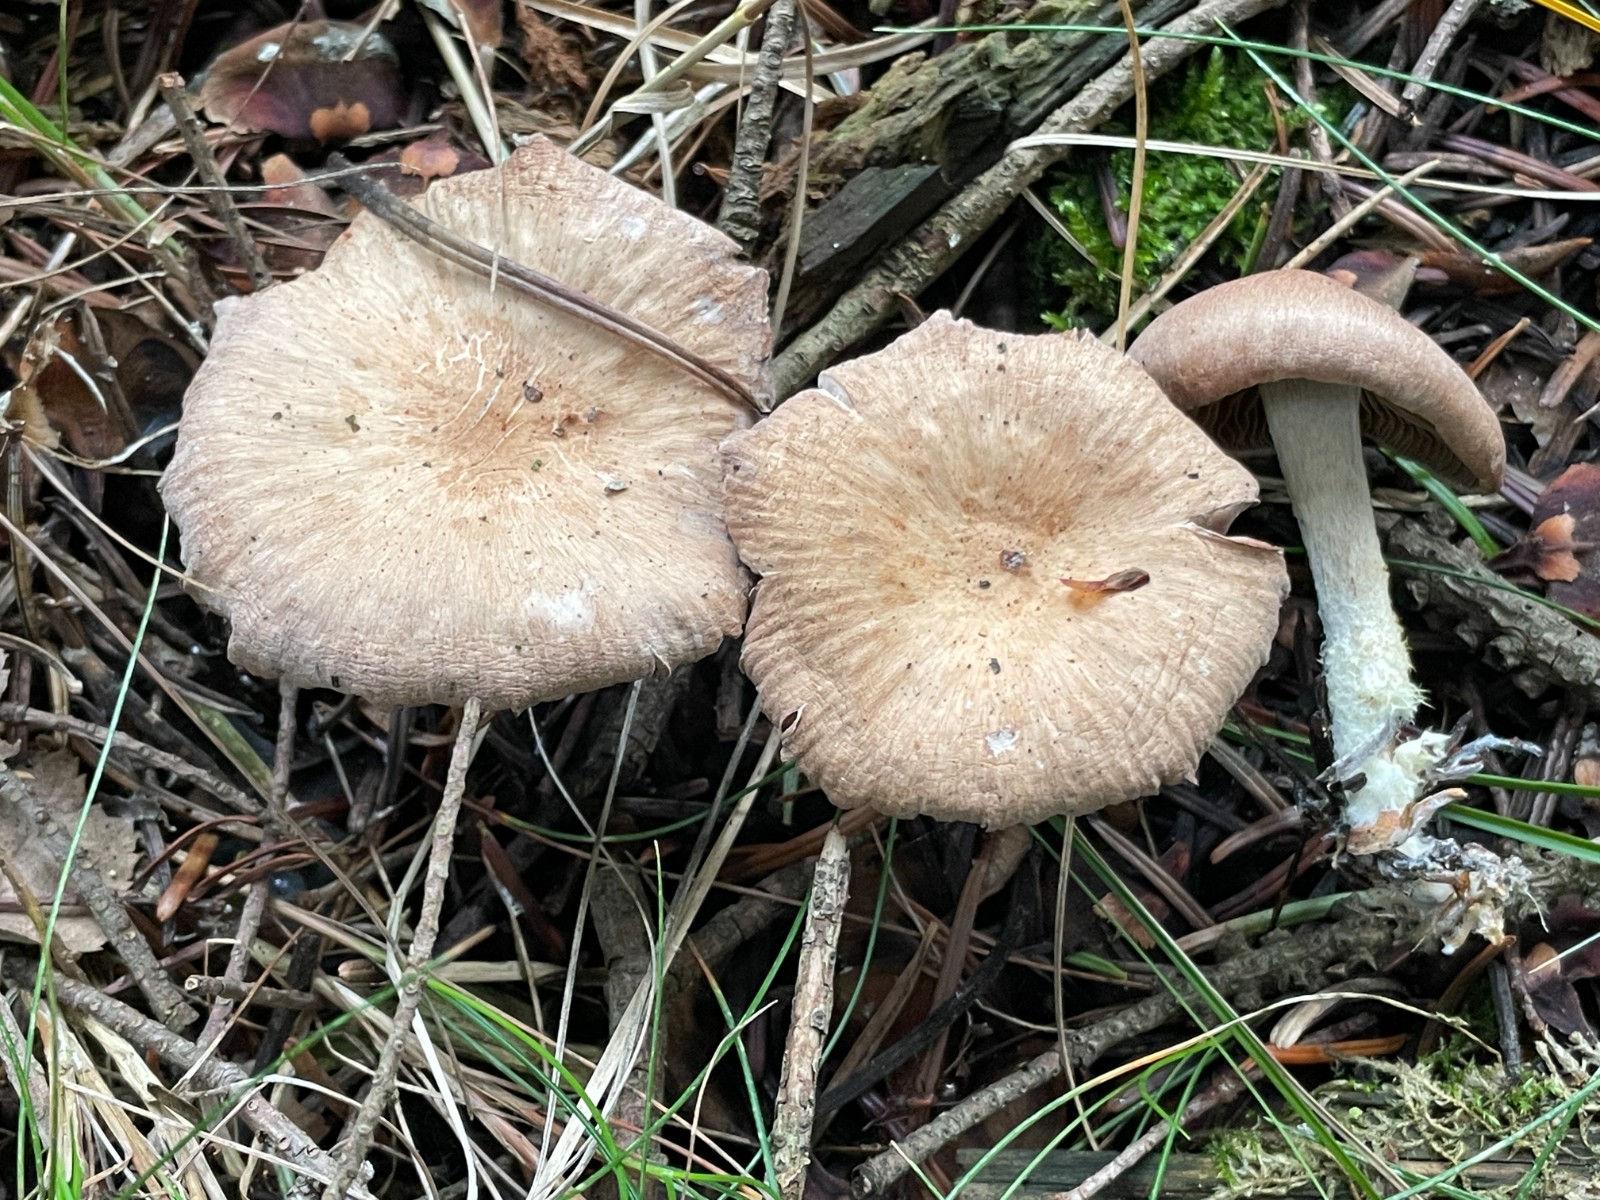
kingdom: Fungi
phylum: Basidiomycota
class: Agaricomycetes
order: Agaricales
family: Omphalotaceae
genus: Collybiopsis
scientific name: Collybiopsis peronata
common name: bestøvlet fladhat
